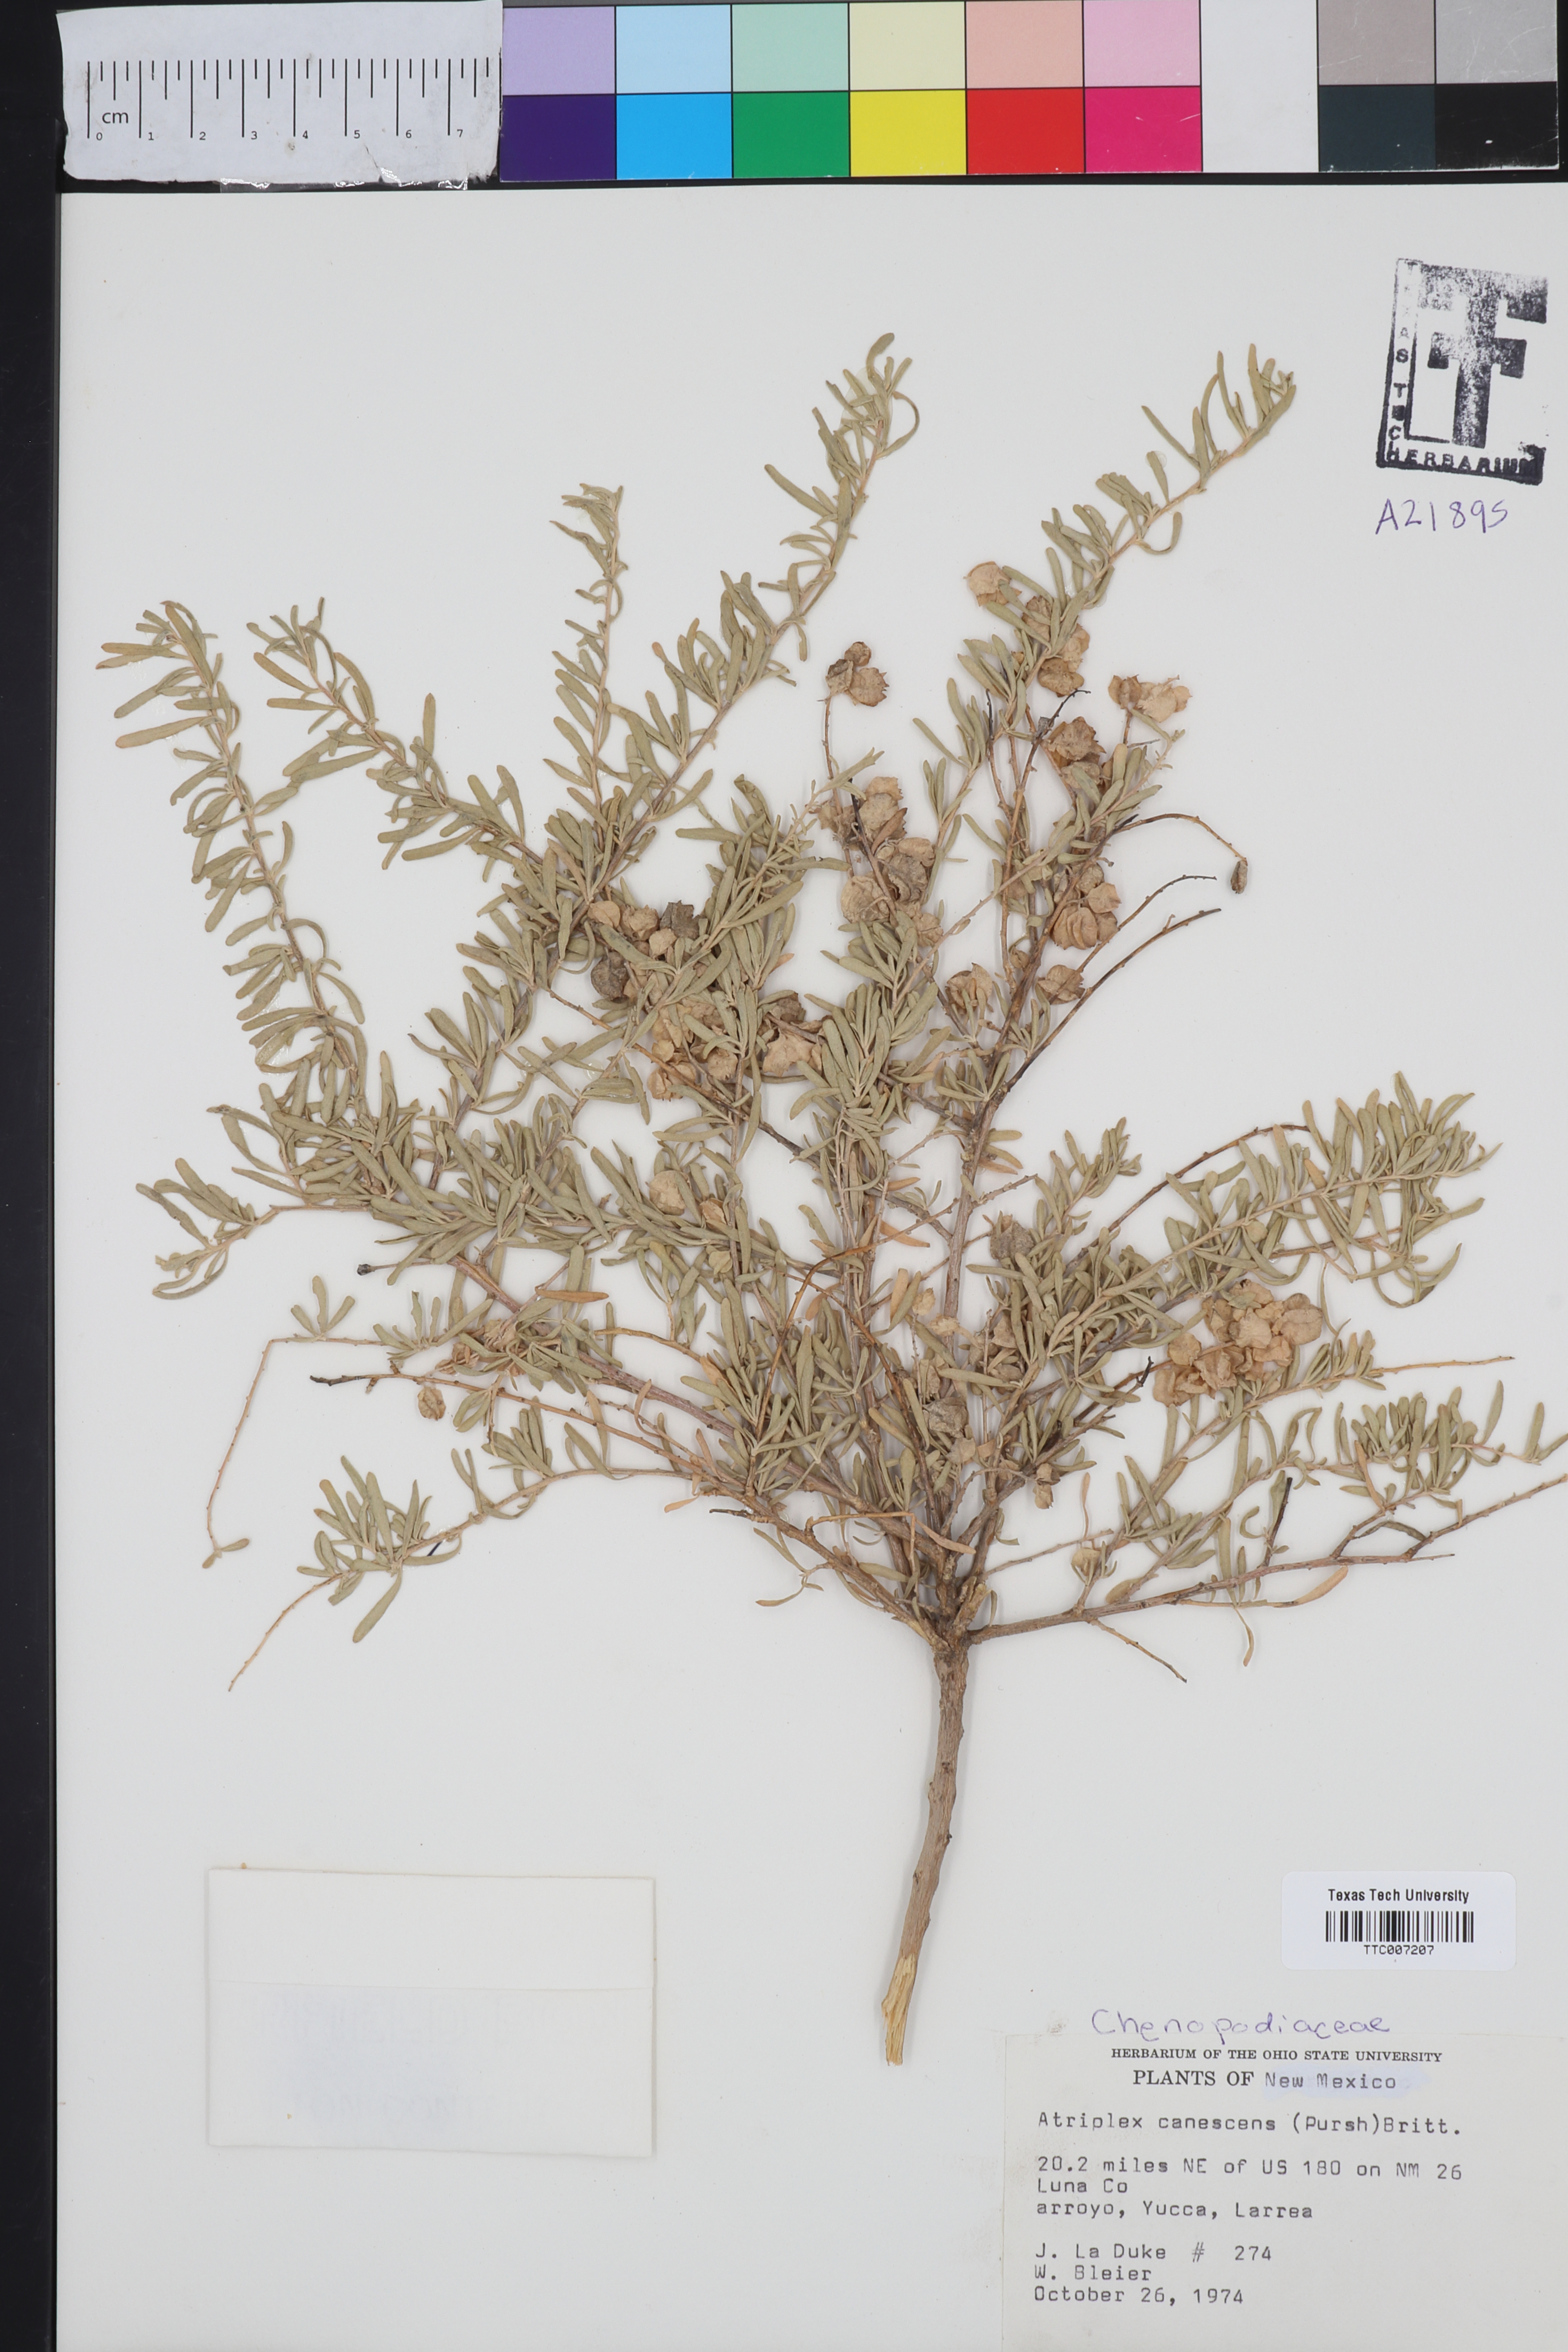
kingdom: Plantae
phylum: Tracheophyta
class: Magnoliopsida
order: Caryophyllales
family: Amaranthaceae
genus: Atriplex
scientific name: Atriplex canescens
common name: Four-wing saltbush
